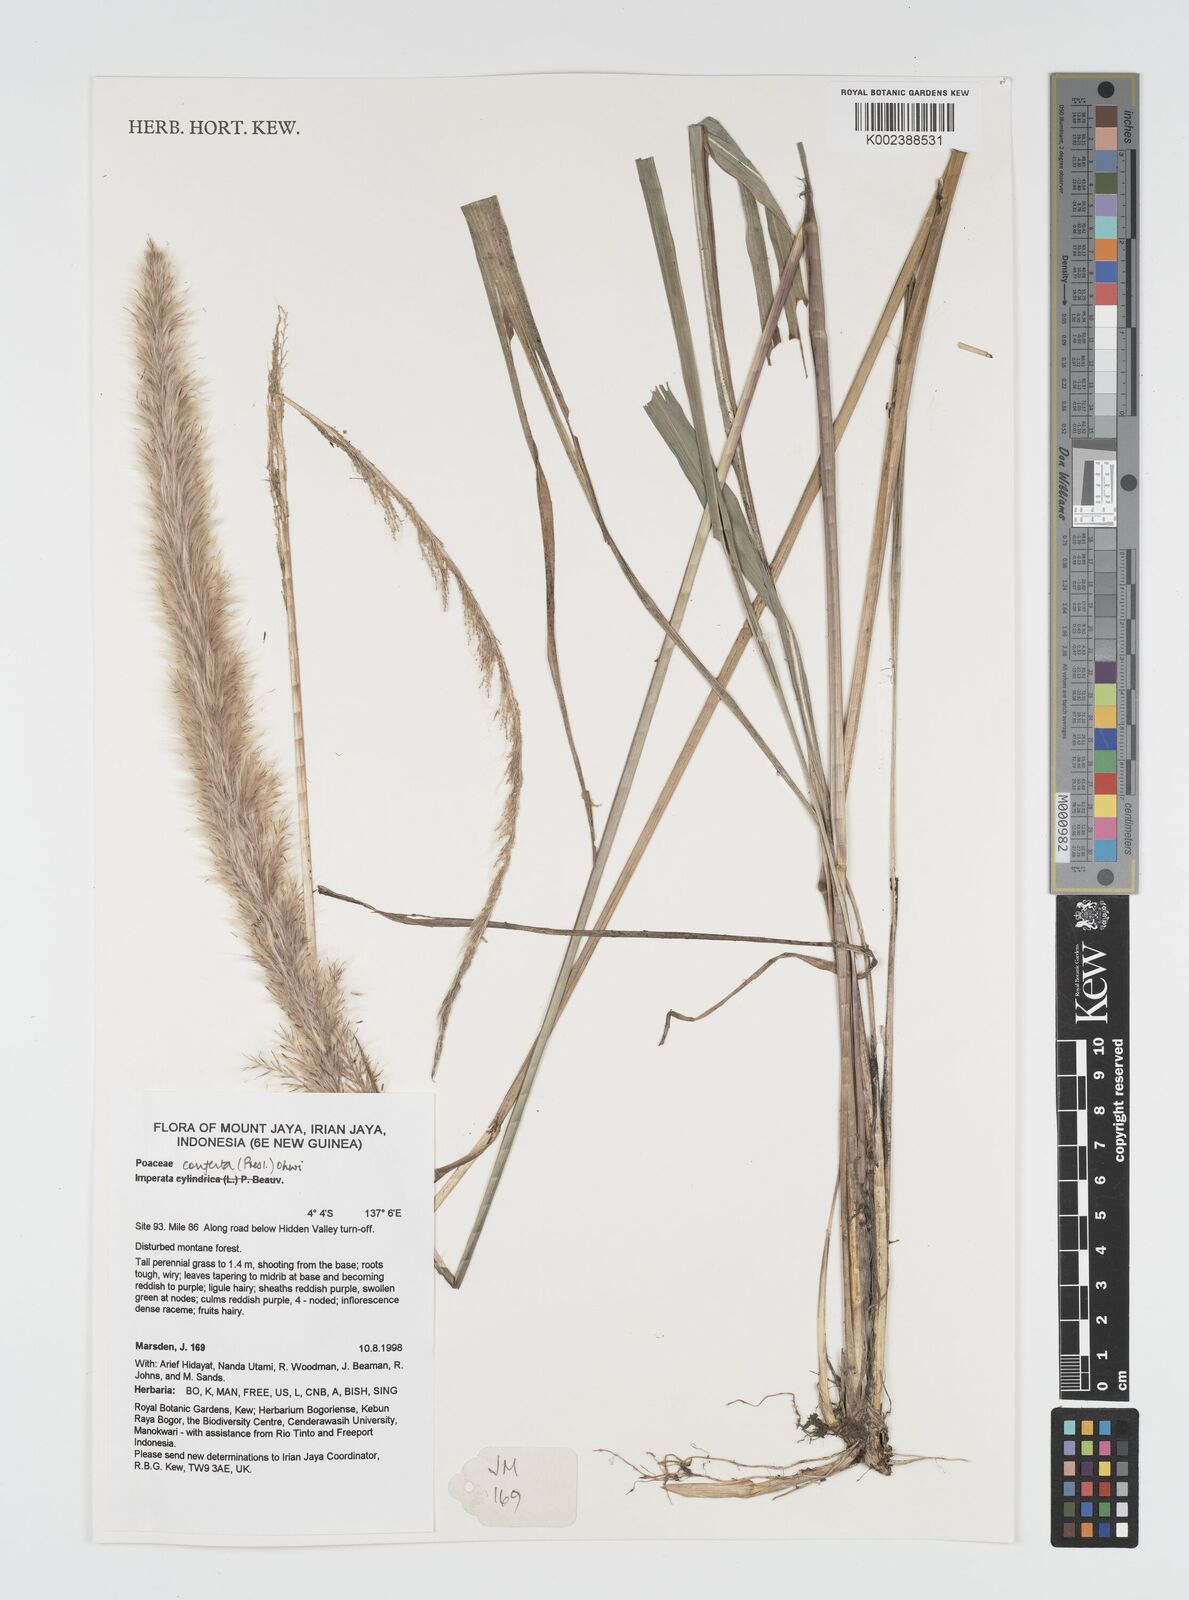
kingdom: Plantae
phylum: Tracheophyta
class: Liliopsida
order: Poales
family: Poaceae
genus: Imperata
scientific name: Imperata conferta
